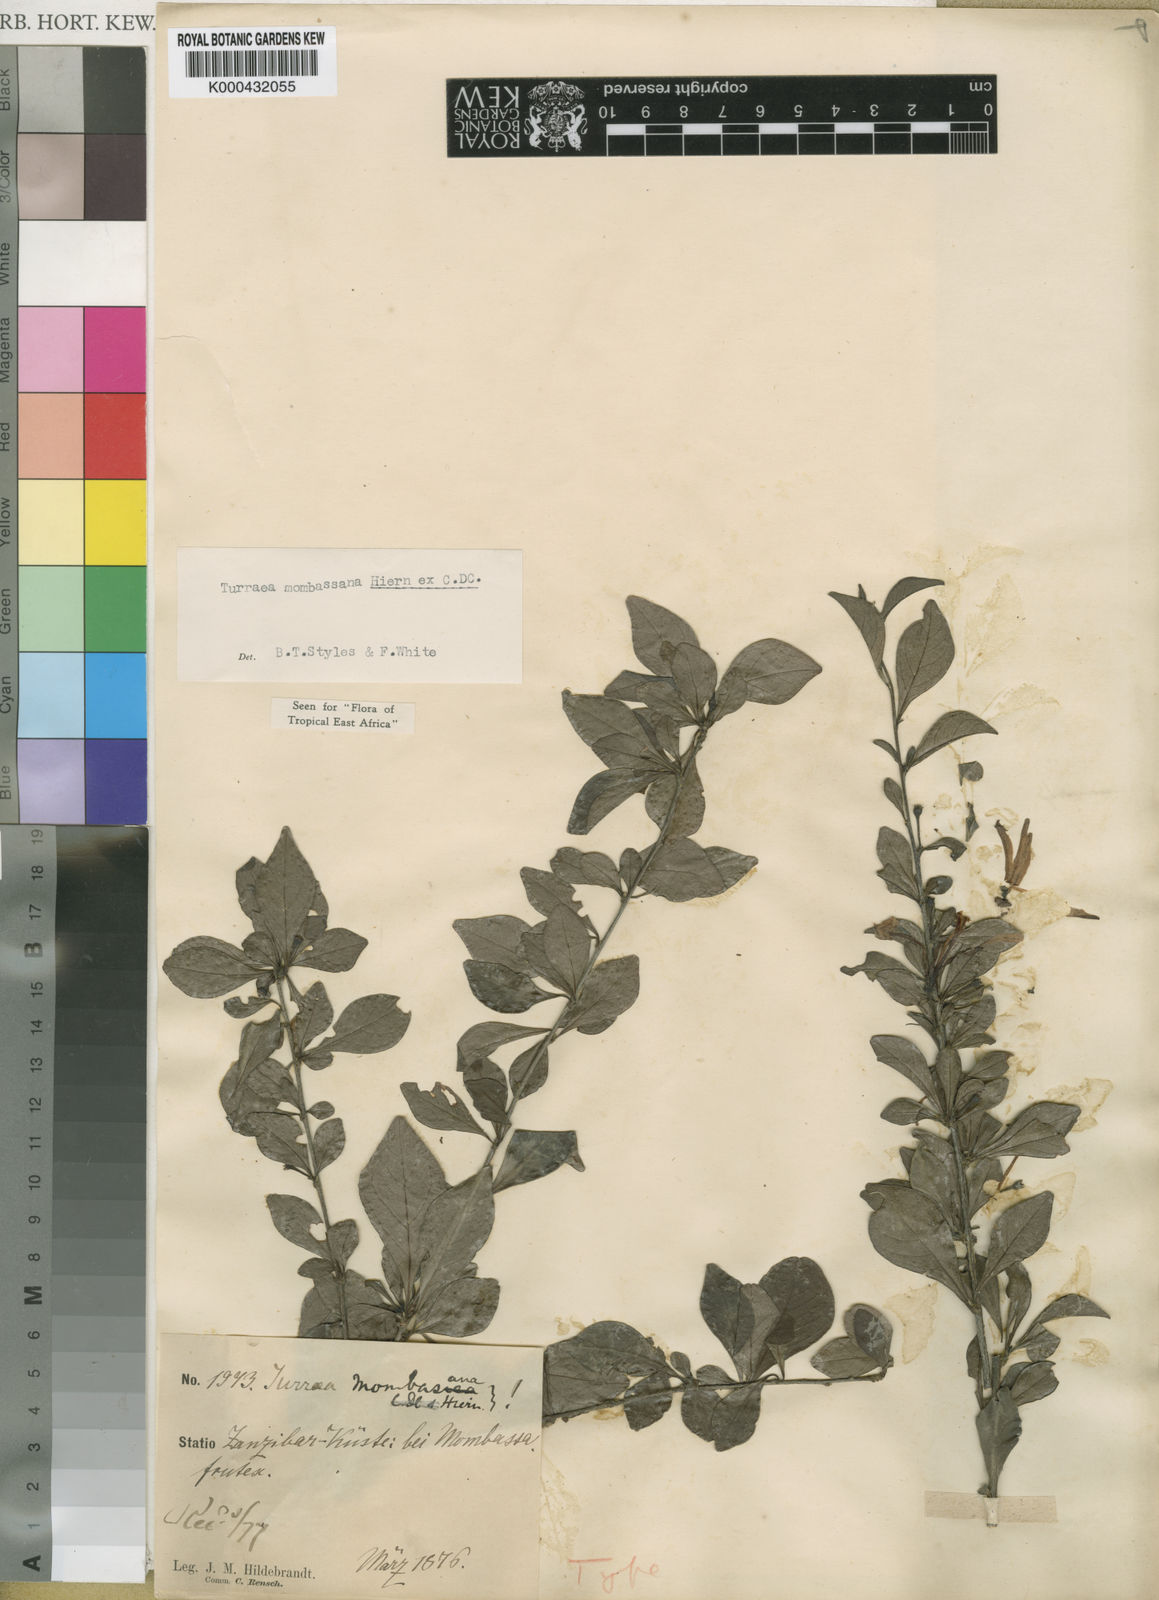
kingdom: Plantae
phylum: Tracheophyta
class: Magnoliopsida
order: Sapindales
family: Meliaceae
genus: Turraea
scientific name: Turraea mombassana
